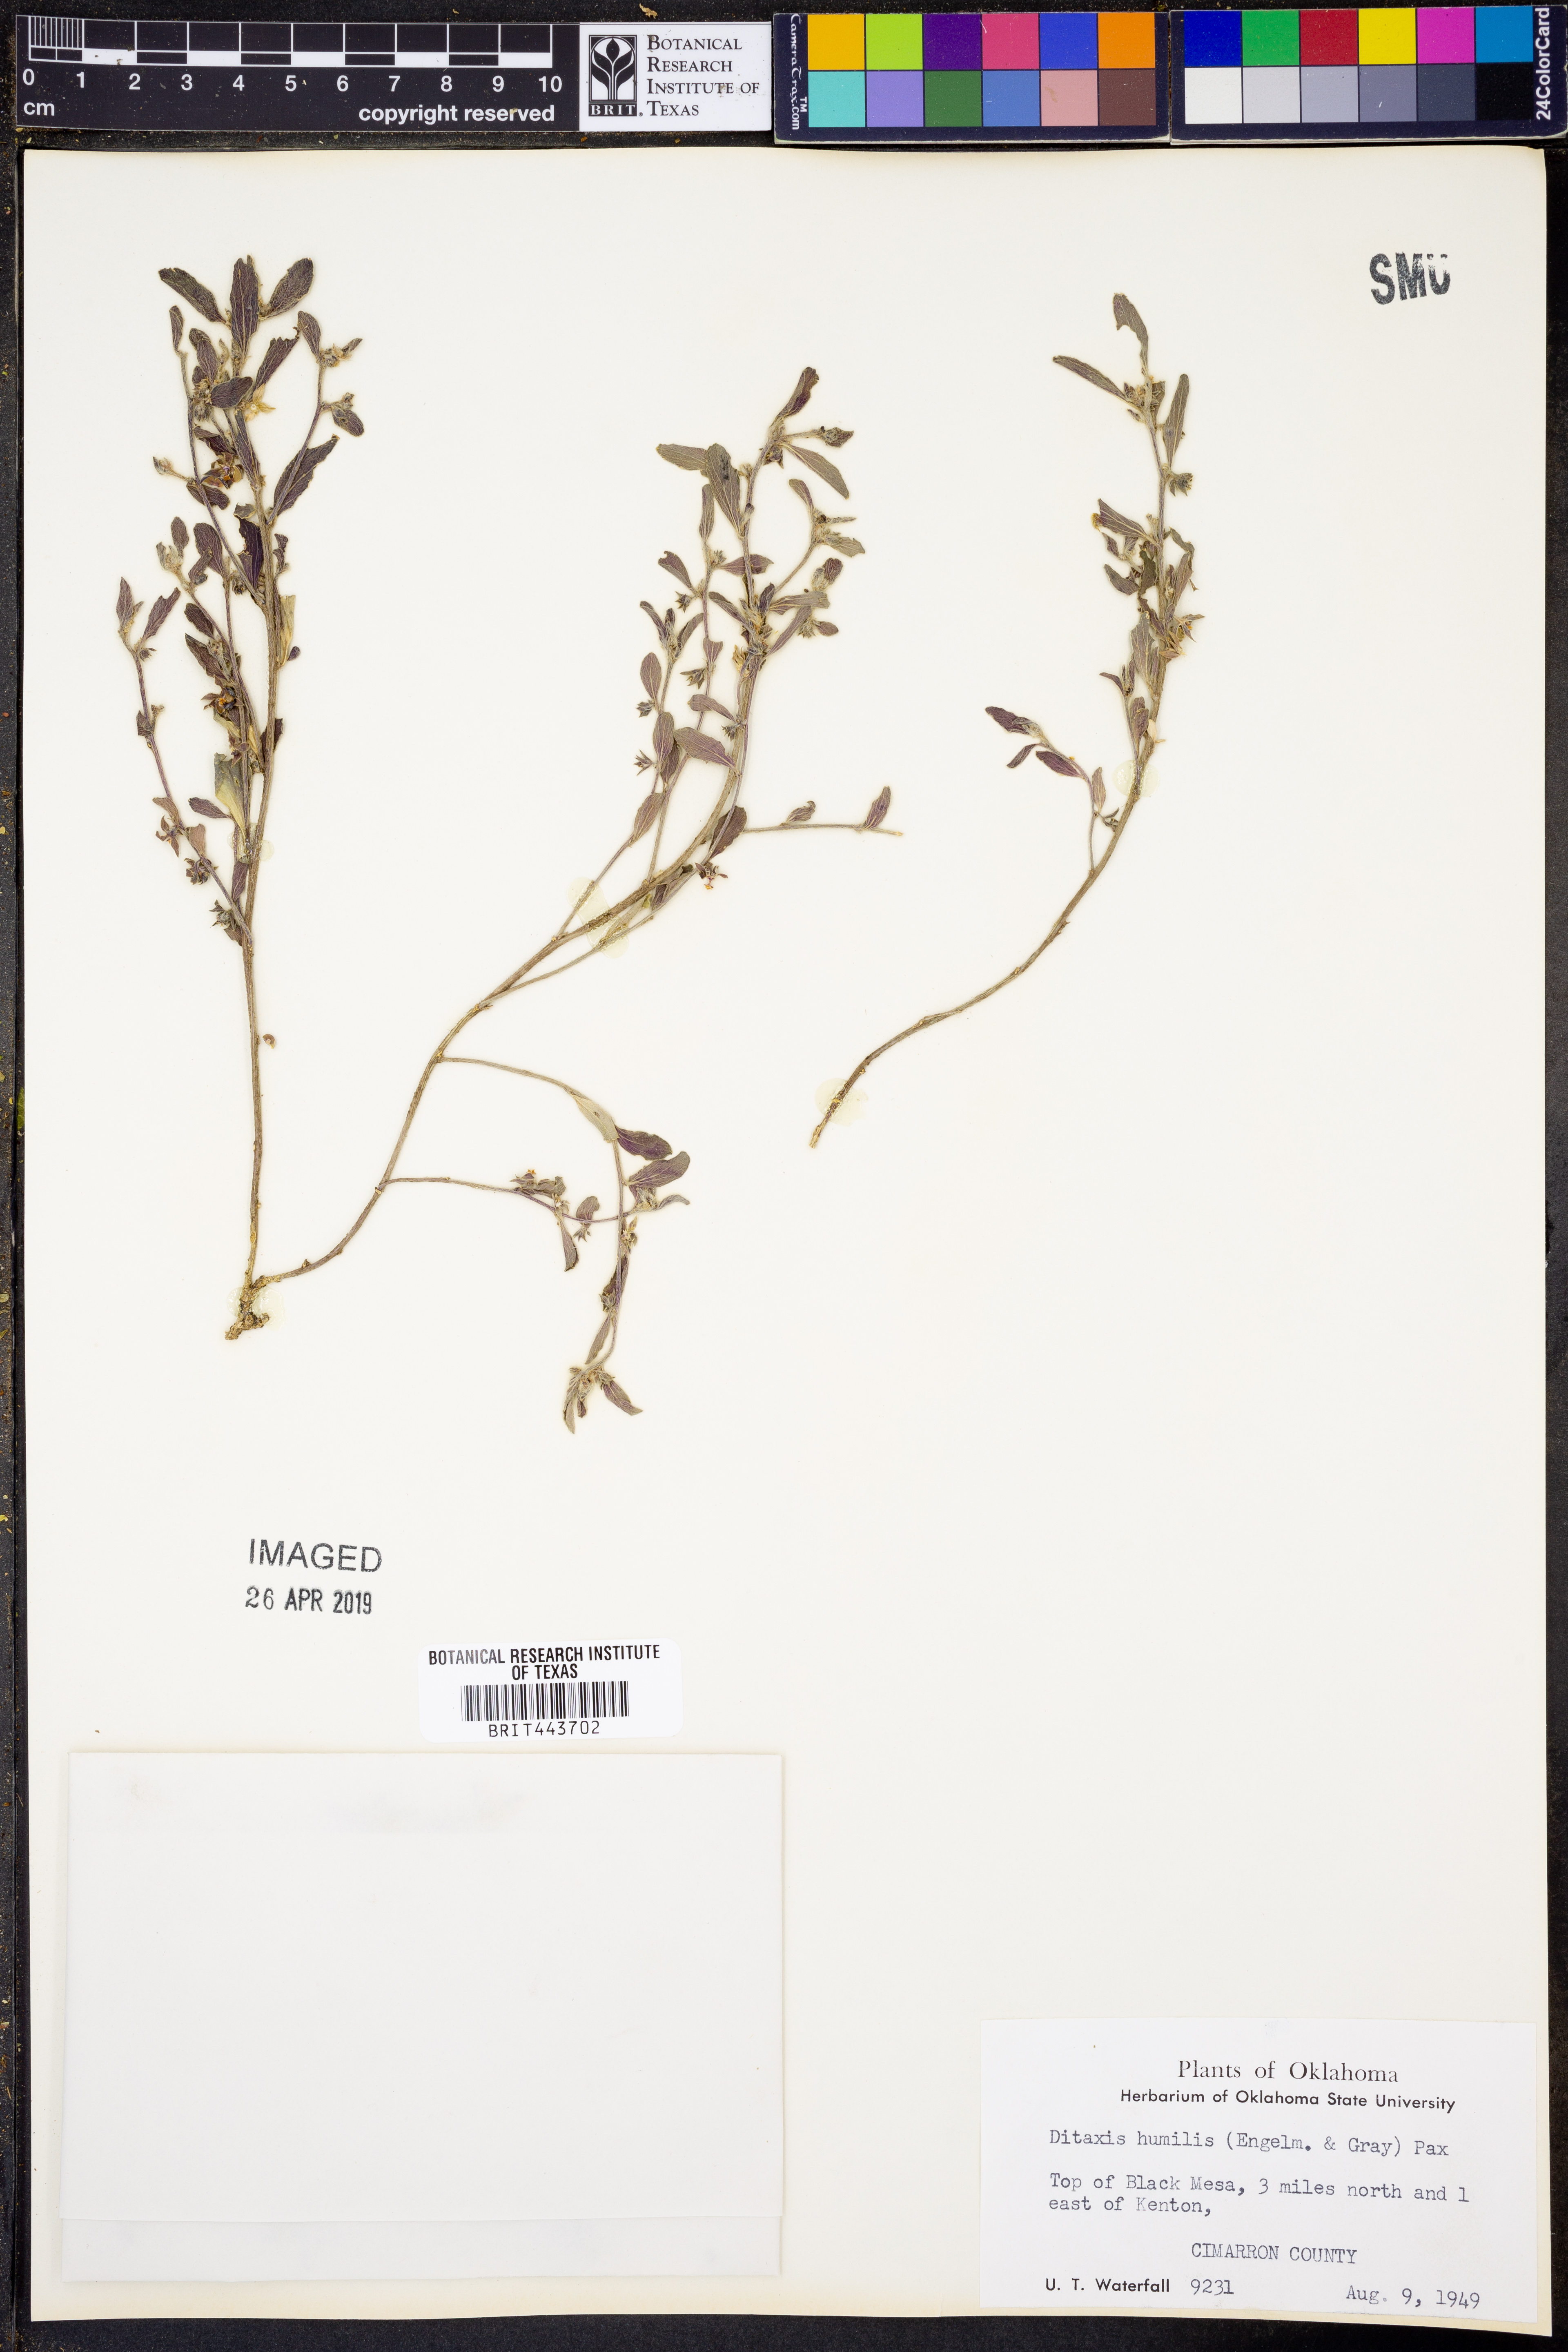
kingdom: Plantae
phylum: Tracheophyta
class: Magnoliopsida
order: Malpighiales
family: Euphorbiaceae
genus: Ditaxis
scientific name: Ditaxis humilis
